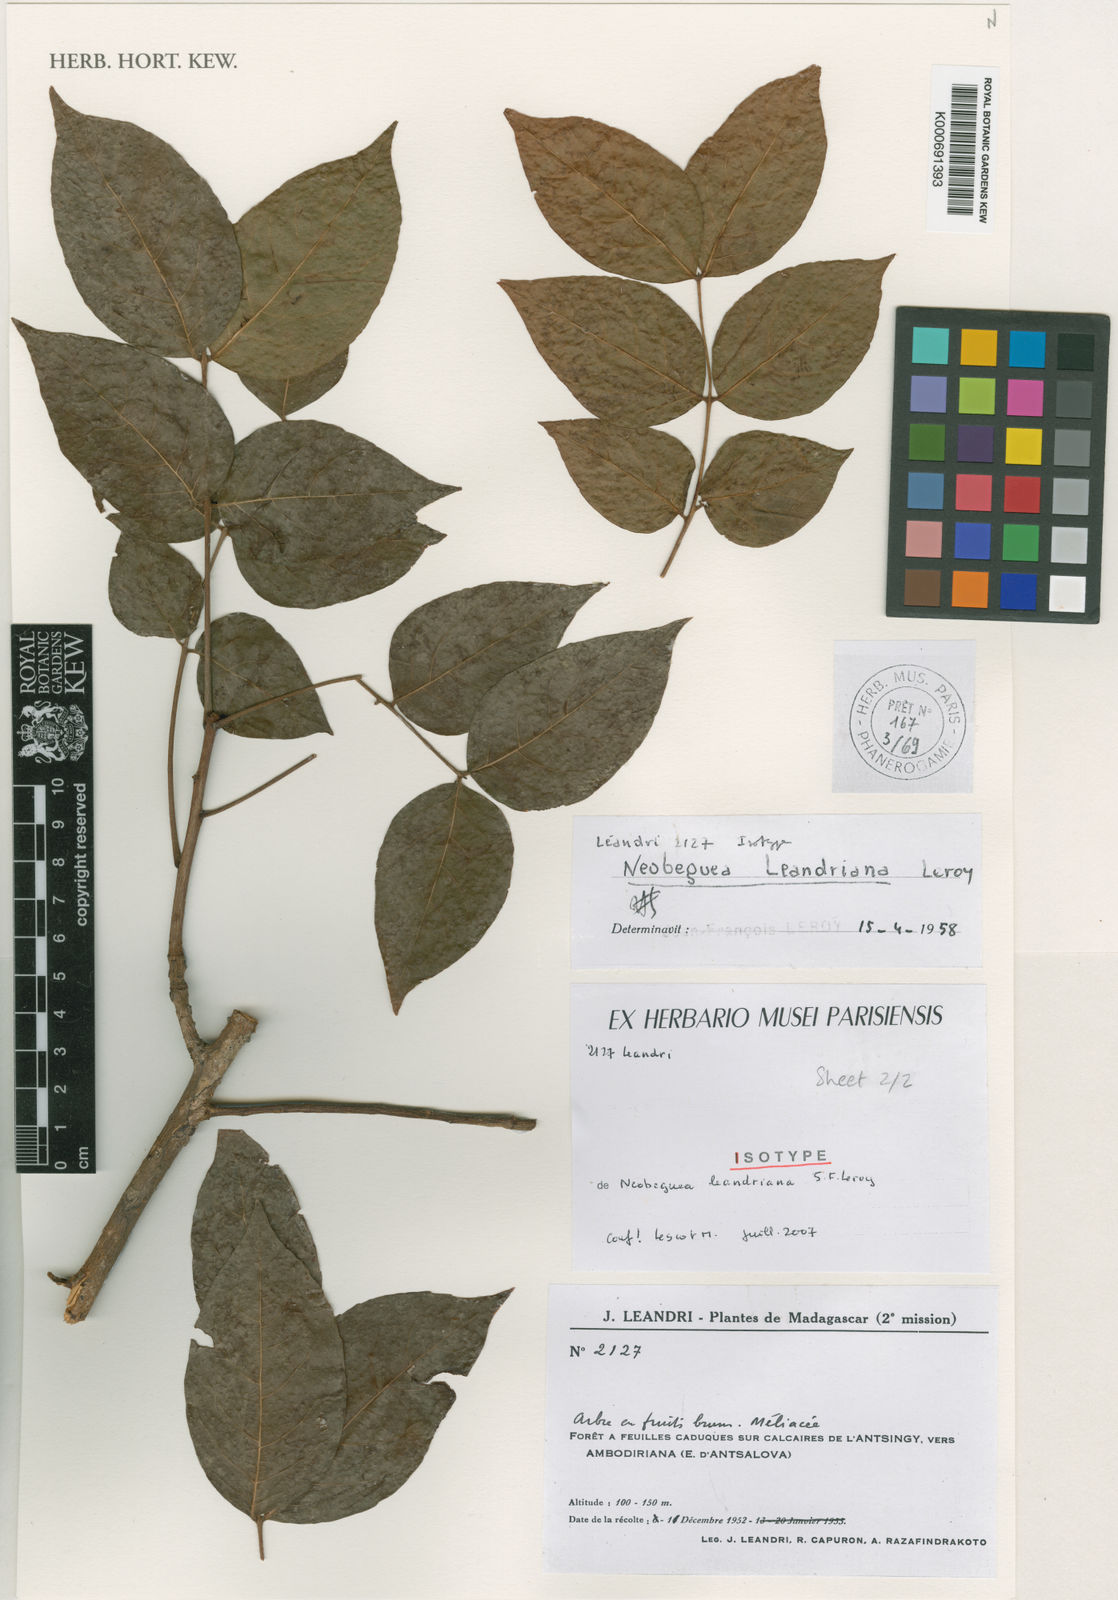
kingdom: Plantae
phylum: Tracheophyta
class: Magnoliopsida
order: Sapindales
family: Meliaceae
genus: Neobeguea
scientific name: Neobeguea leandriana
